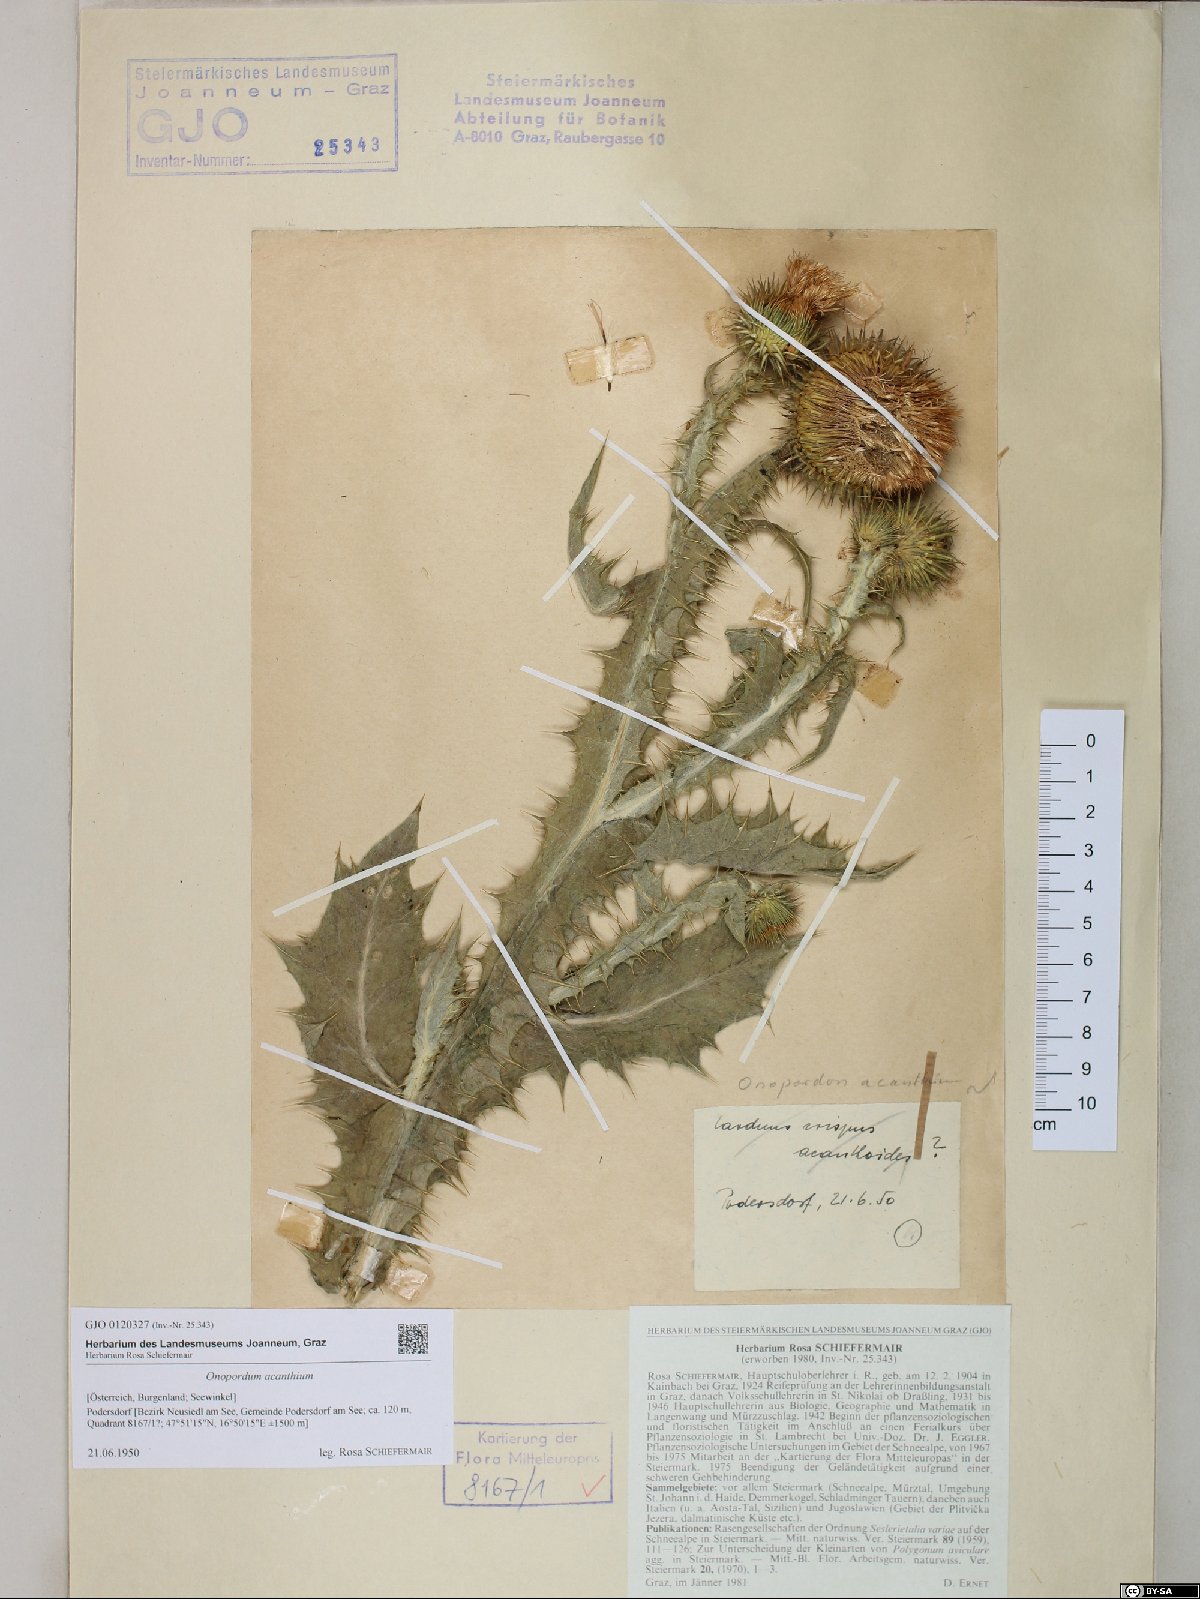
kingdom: Plantae
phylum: Tracheophyta
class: Magnoliopsida
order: Asterales
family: Asteraceae
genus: Onopordum
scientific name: Onopordum acanthium
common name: Scotch thistle
